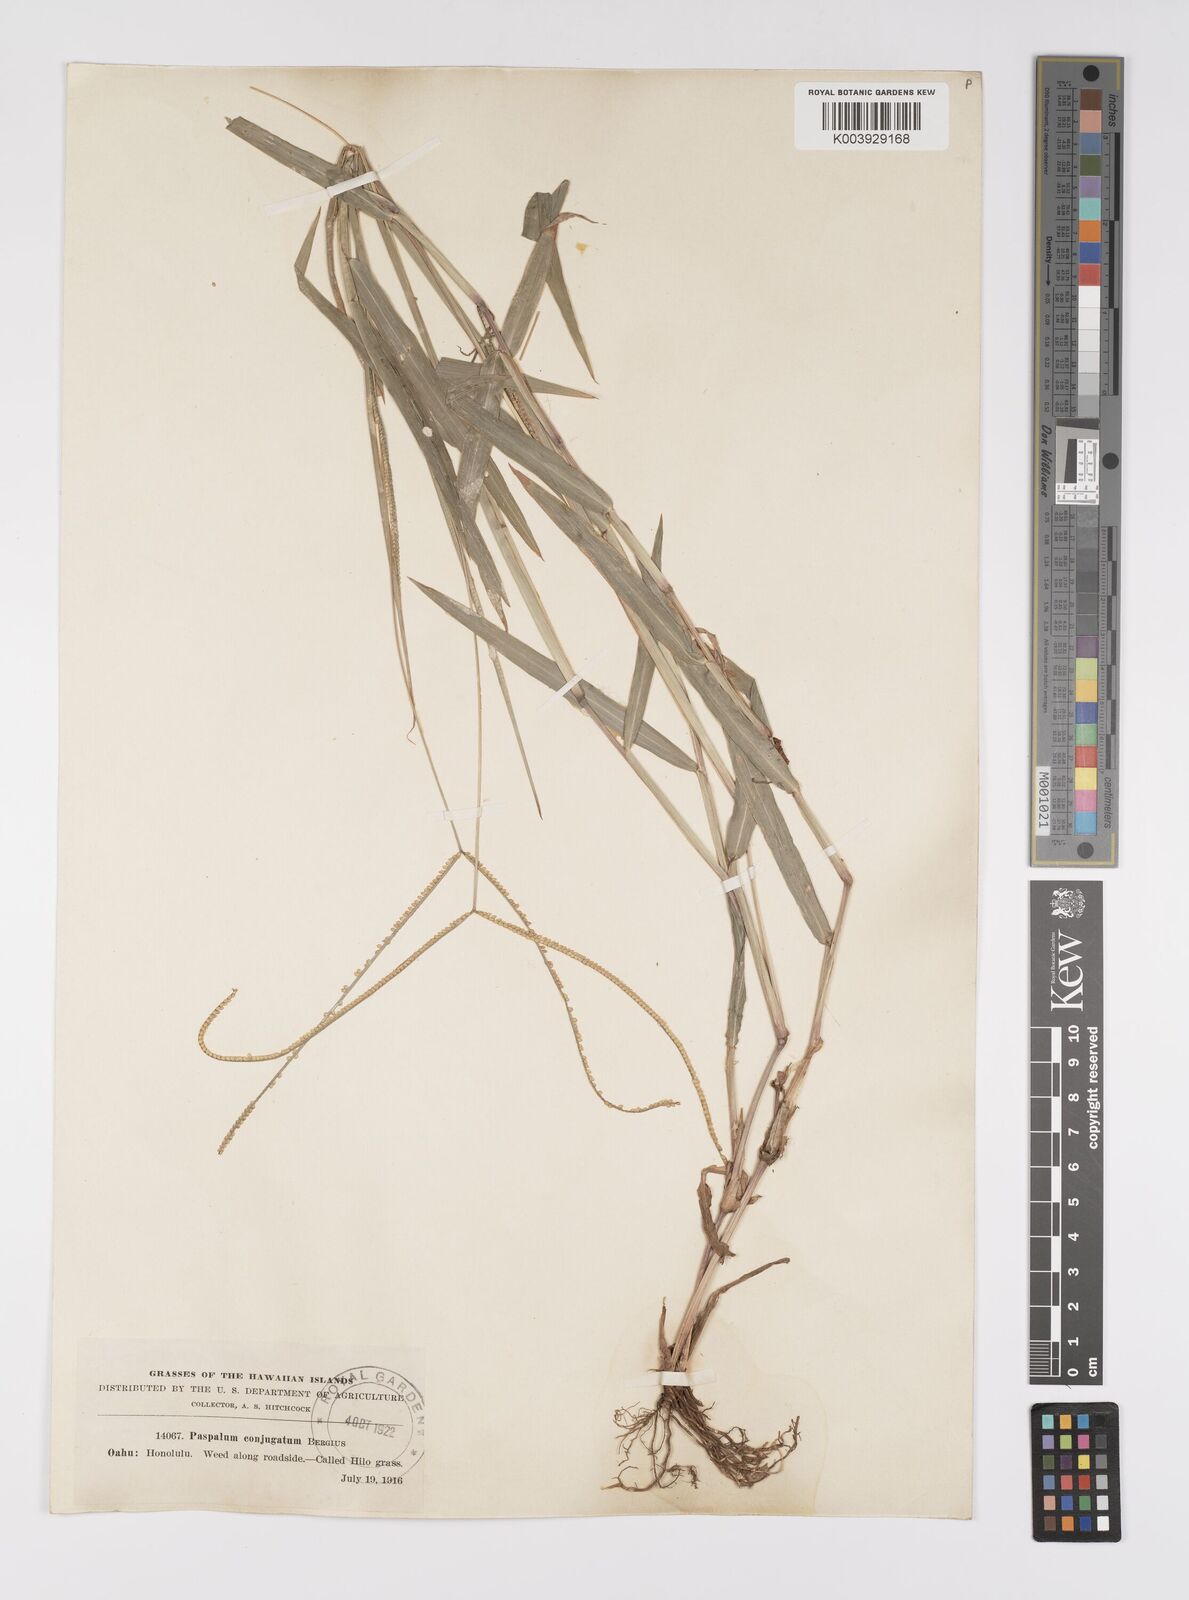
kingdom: Plantae
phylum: Tracheophyta
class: Liliopsida
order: Poales
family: Poaceae
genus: Paspalum
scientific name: Paspalum conjugatum
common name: Hilograss
